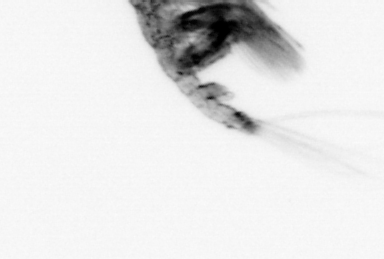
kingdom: Animalia
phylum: Arthropoda
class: Malacostraca
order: Decapoda
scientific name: Decapoda
